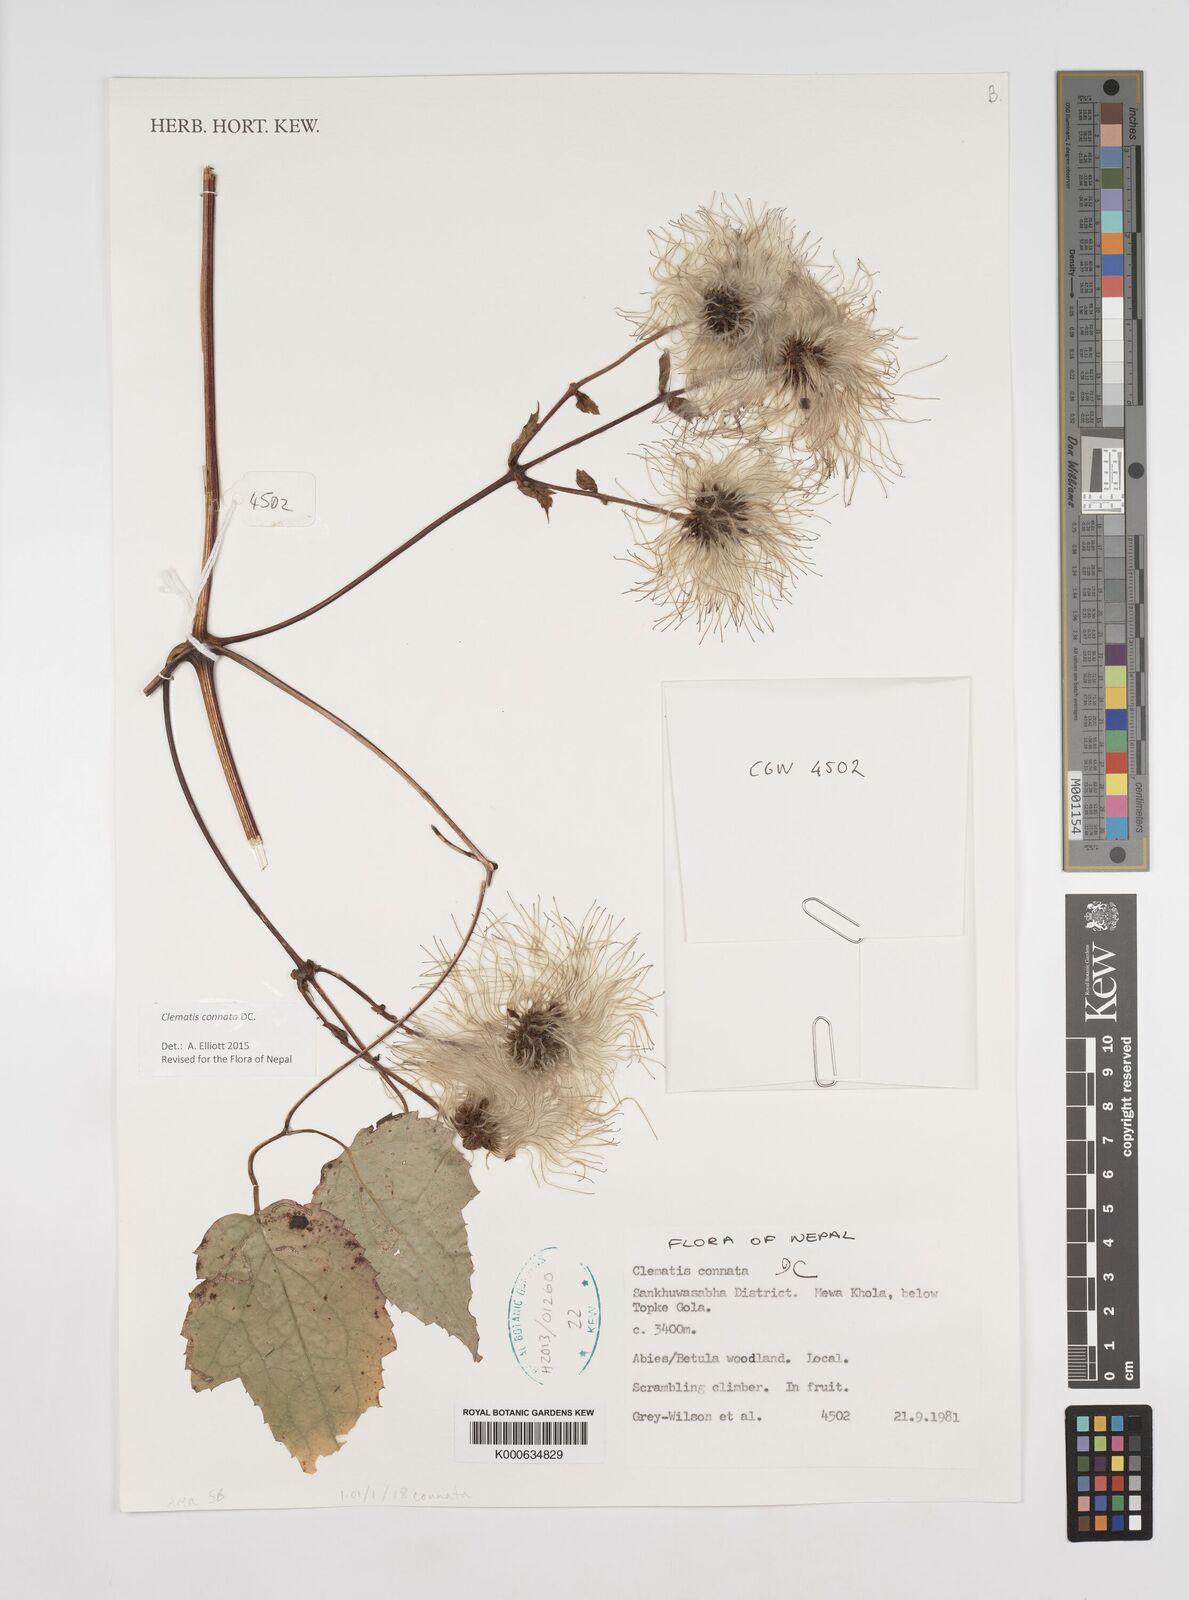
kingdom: Plantae
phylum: Tracheophyta
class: Magnoliopsida
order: Ranunculales
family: Ranunculaceae
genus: Clematis
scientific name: Clematis connata
